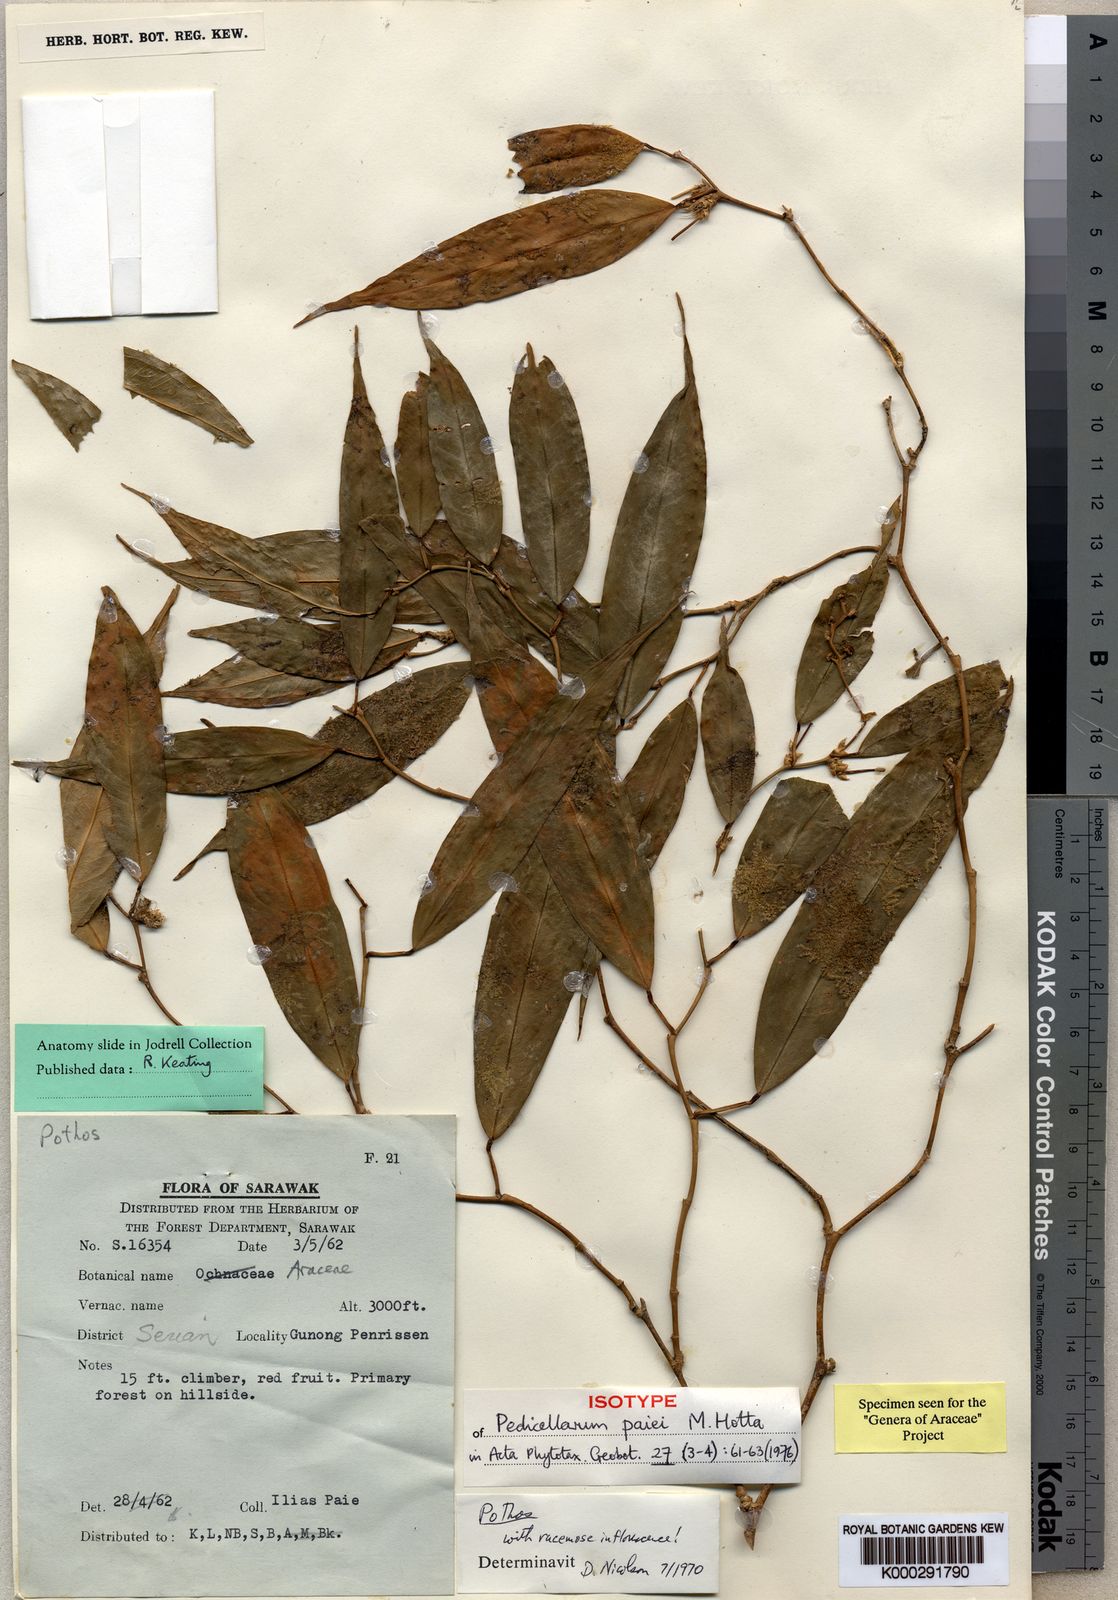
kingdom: Plantae
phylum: Tracheophyta
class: Liliopsida
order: Alismatales
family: Araceae
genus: Pothos
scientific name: Pothos paiei
